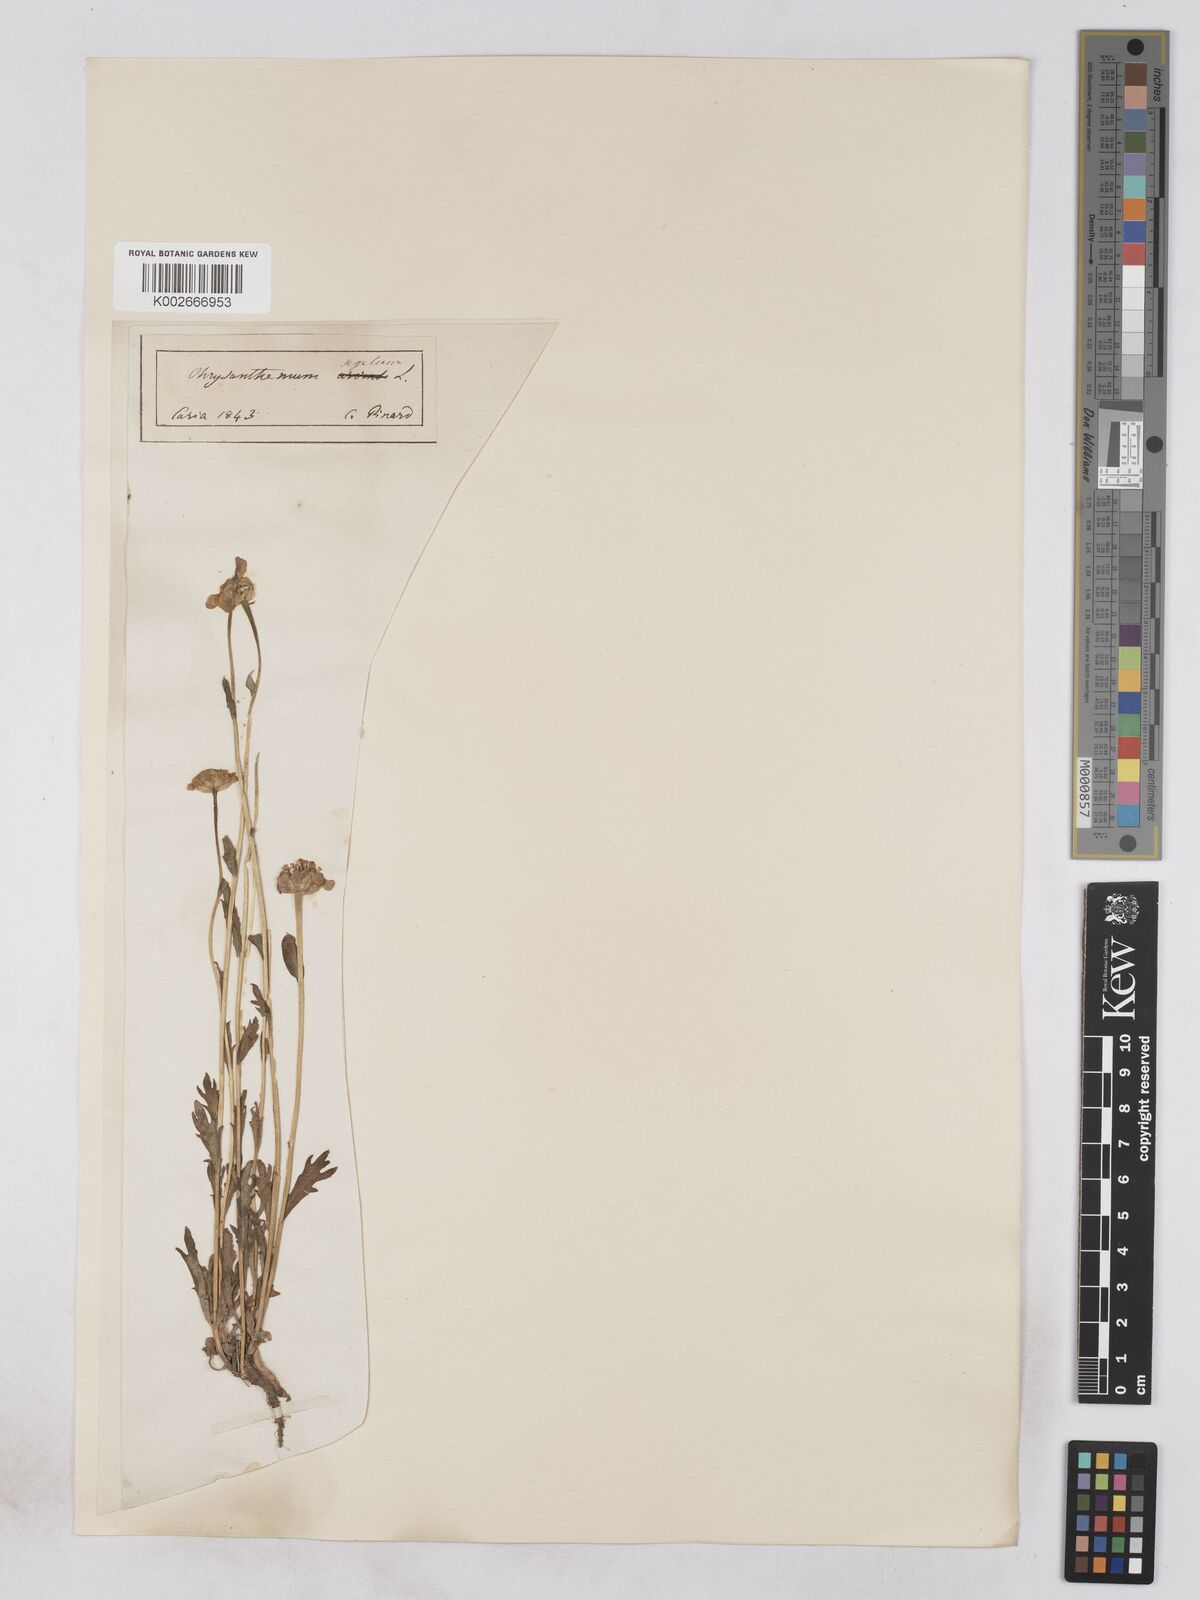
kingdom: Plantae
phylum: Tracheophyta
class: Magnoliopsida
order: Asterales
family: Asteraceae
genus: Glebionis
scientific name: Glebionis segetum
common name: Corndaisy
